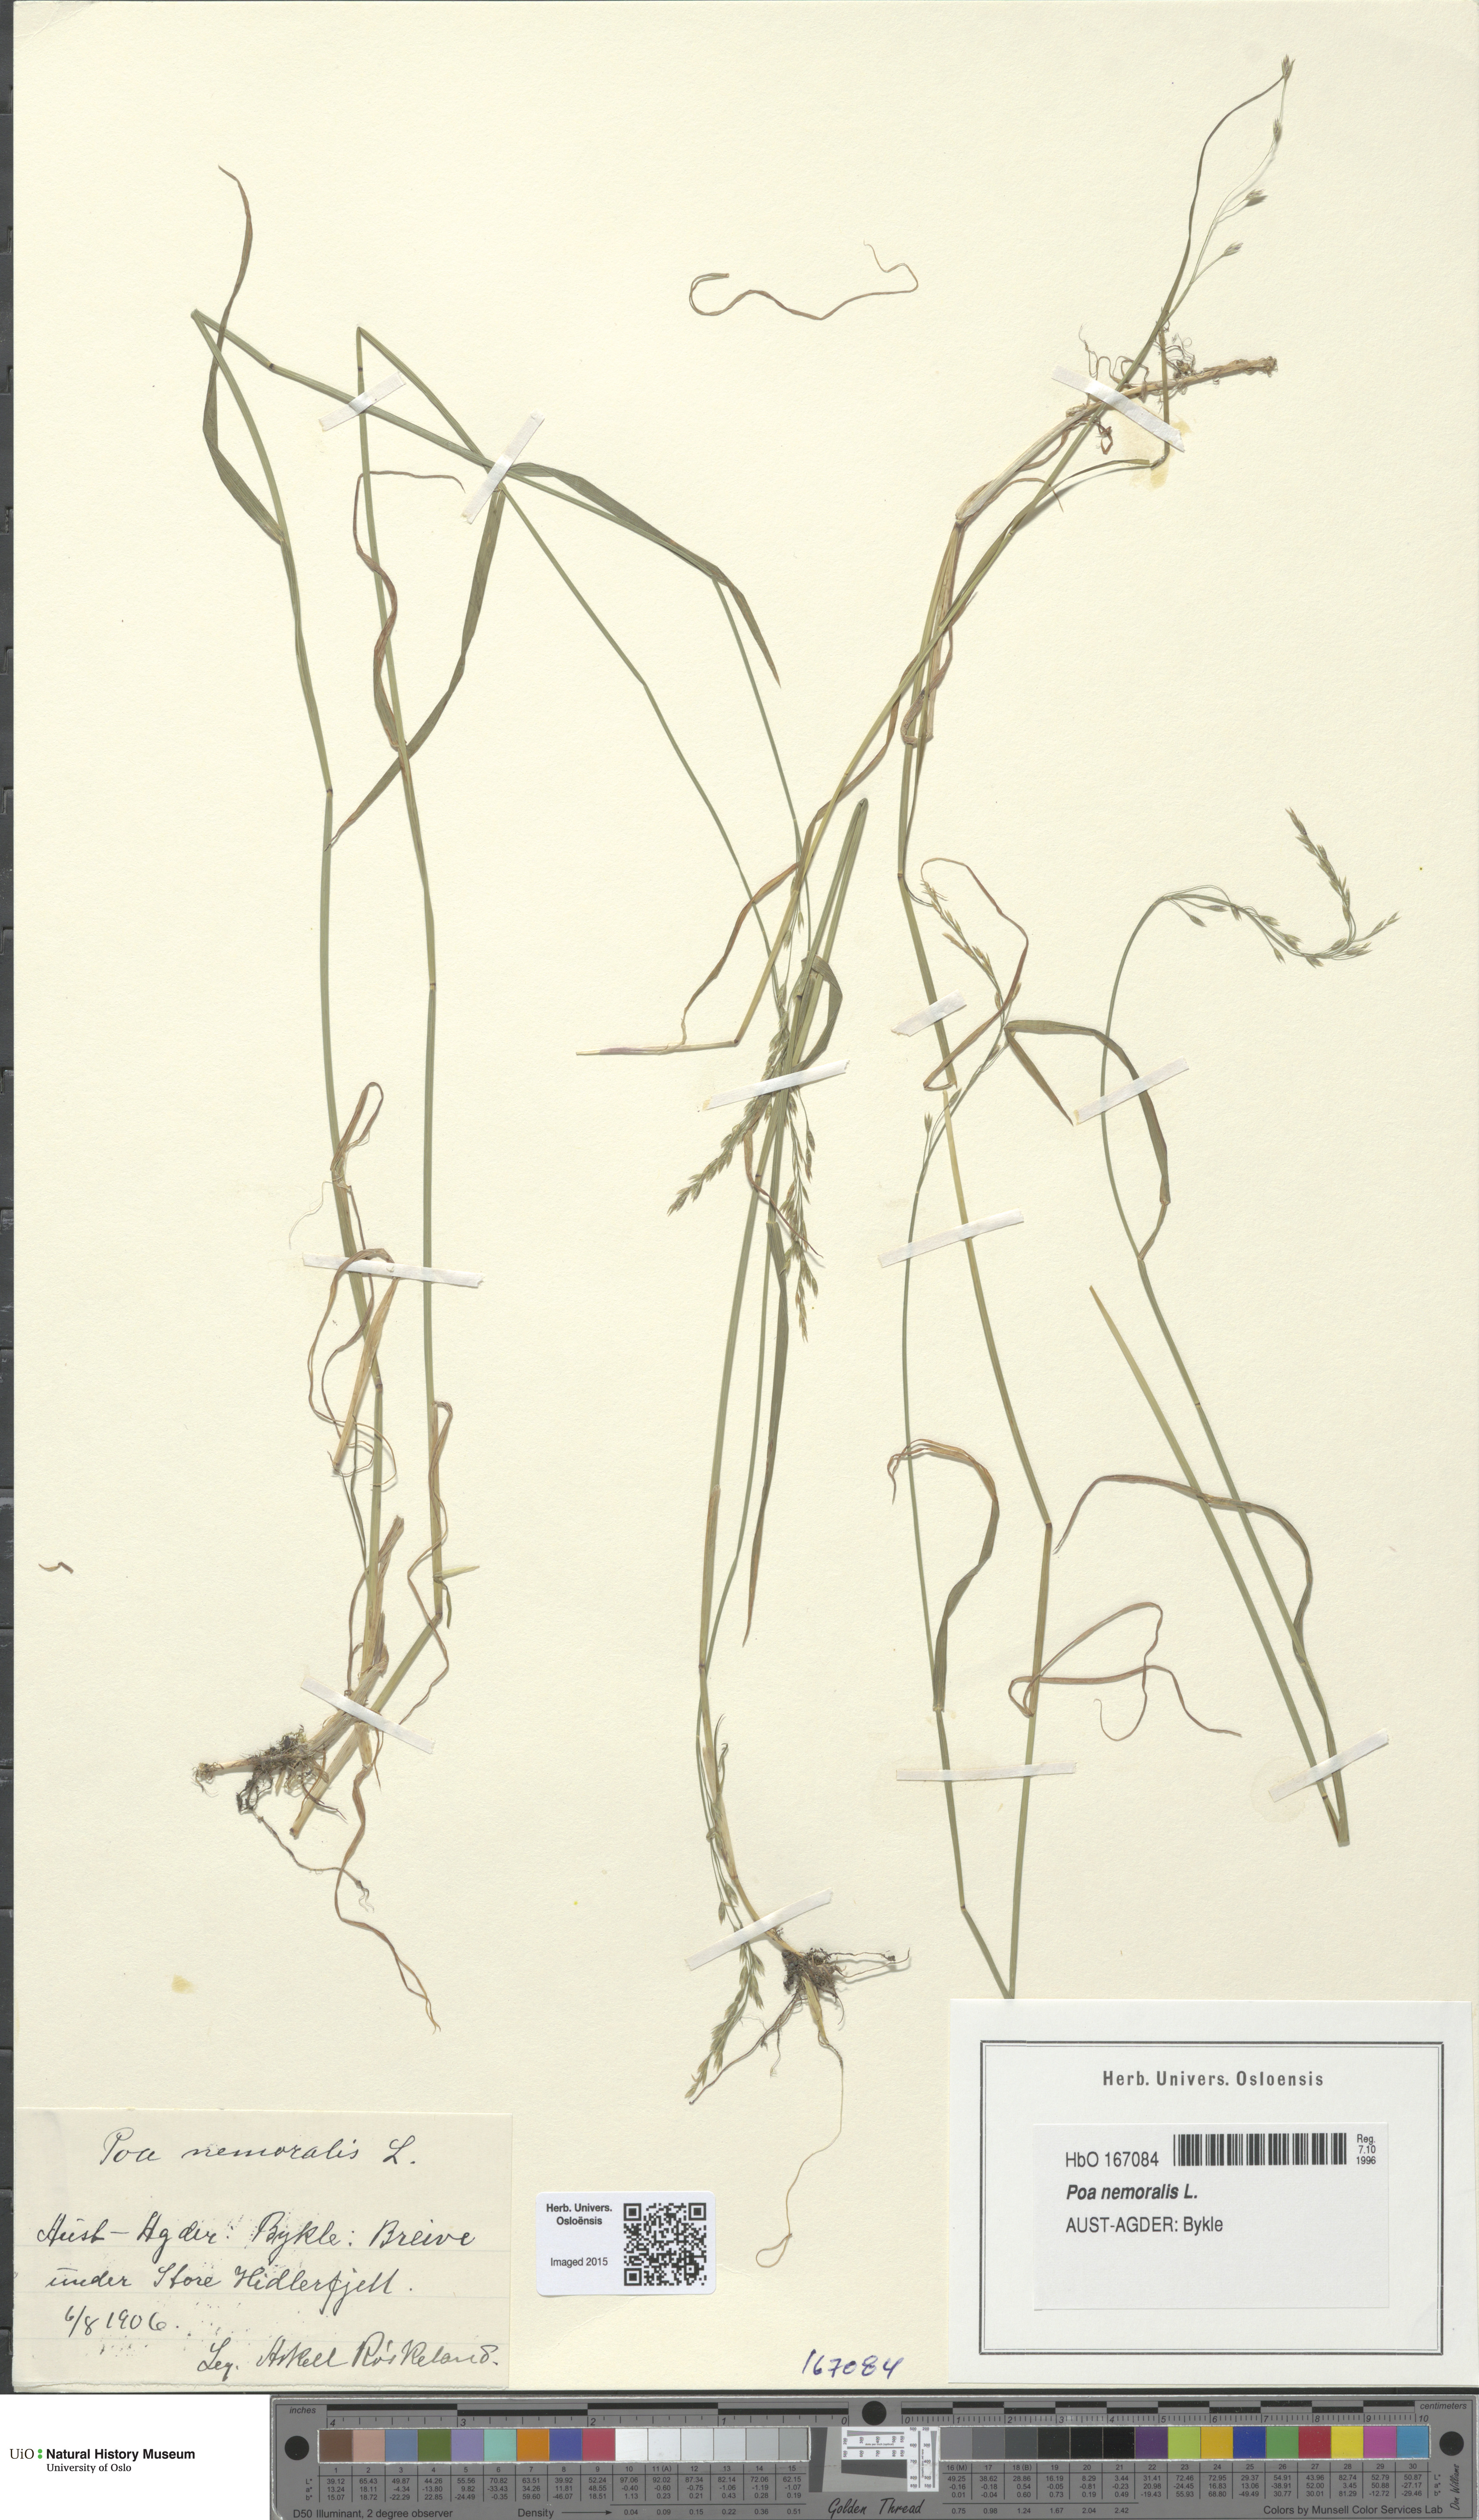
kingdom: Plantae
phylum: Tracheophyta
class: Liliopsida
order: Poales
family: Poaceae
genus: Poa
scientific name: Poa nemoralis
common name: Wood bluegrass
